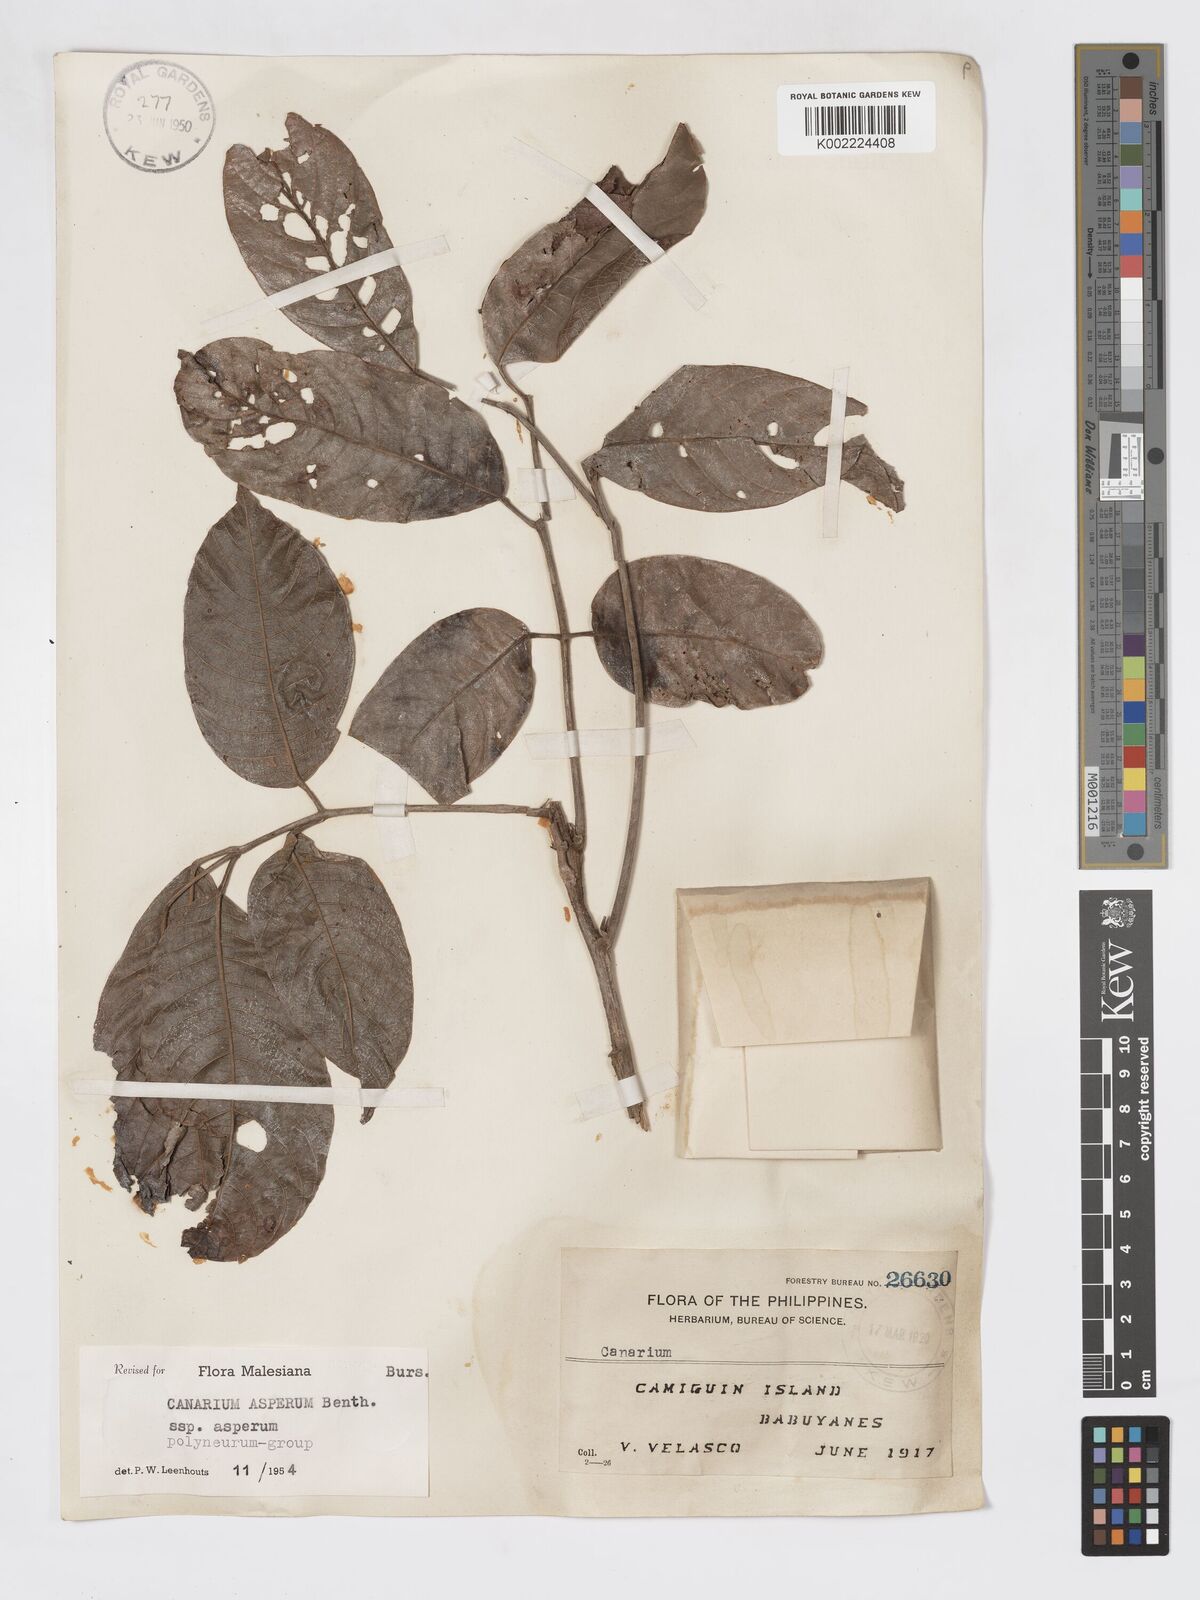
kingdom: Plantae
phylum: Tracheophyta
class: Magnoliopsida
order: Sapindales
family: Burseraceae
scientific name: Burseraceae
